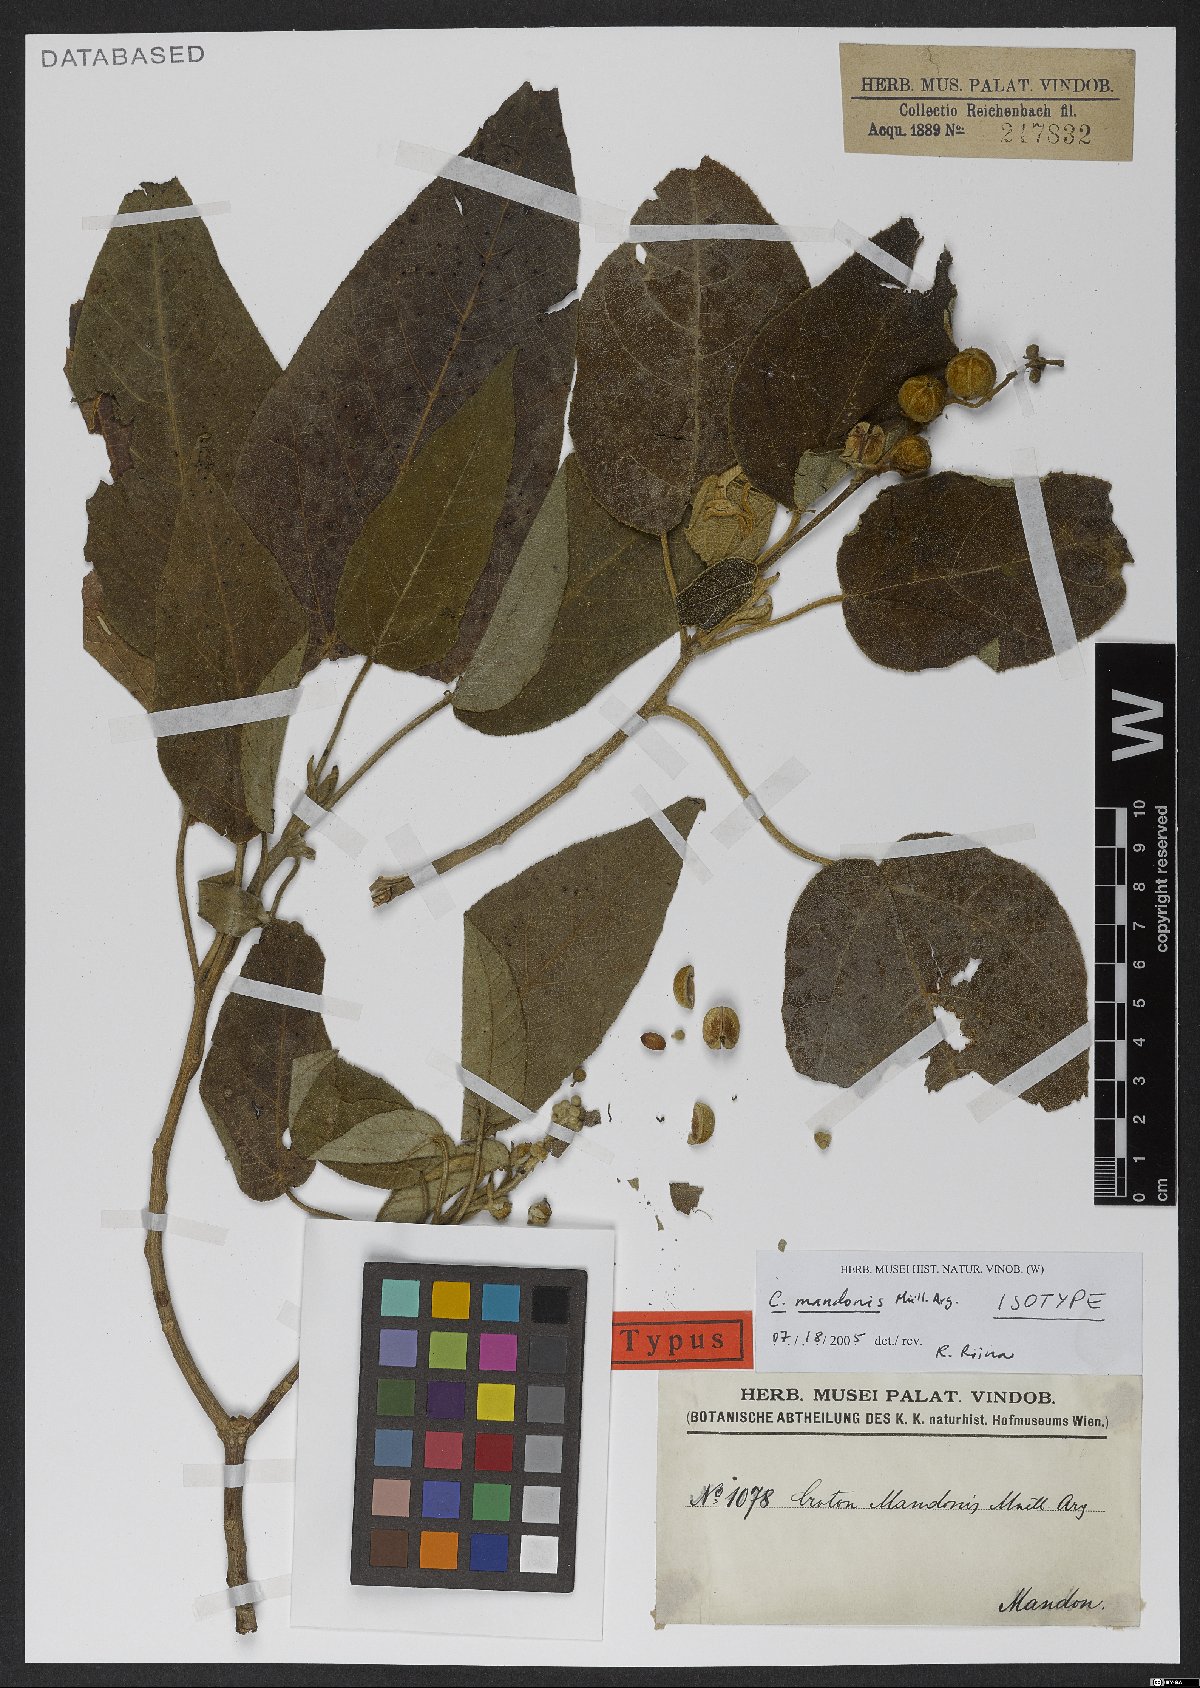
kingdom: Plantae
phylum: Tracheophyta
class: Magnoliopsida
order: Malpighiales
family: Euphorbiaceae
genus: Croton
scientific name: Croton quadrisetosus
